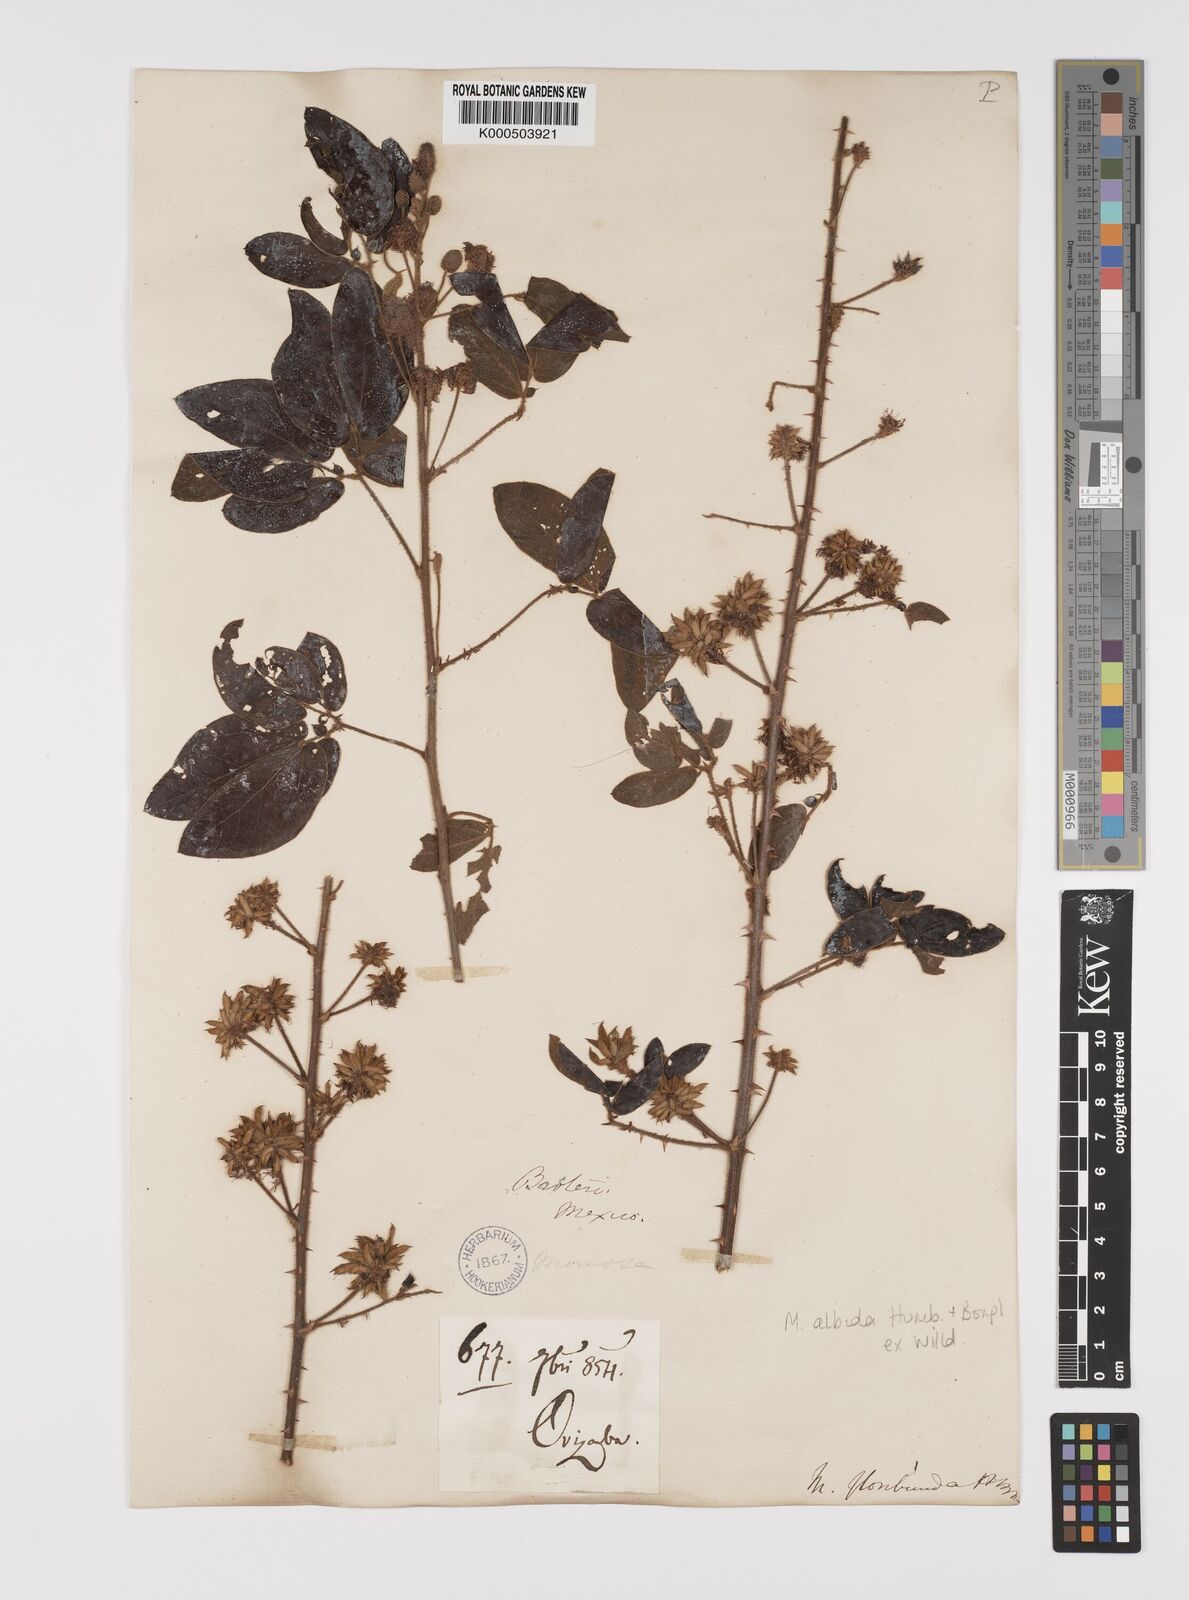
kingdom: Plantae
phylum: Tracheophyta
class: Magnoliopsida
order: Fabales
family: Fabaceae
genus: Mimosa
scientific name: Mimosa albida
